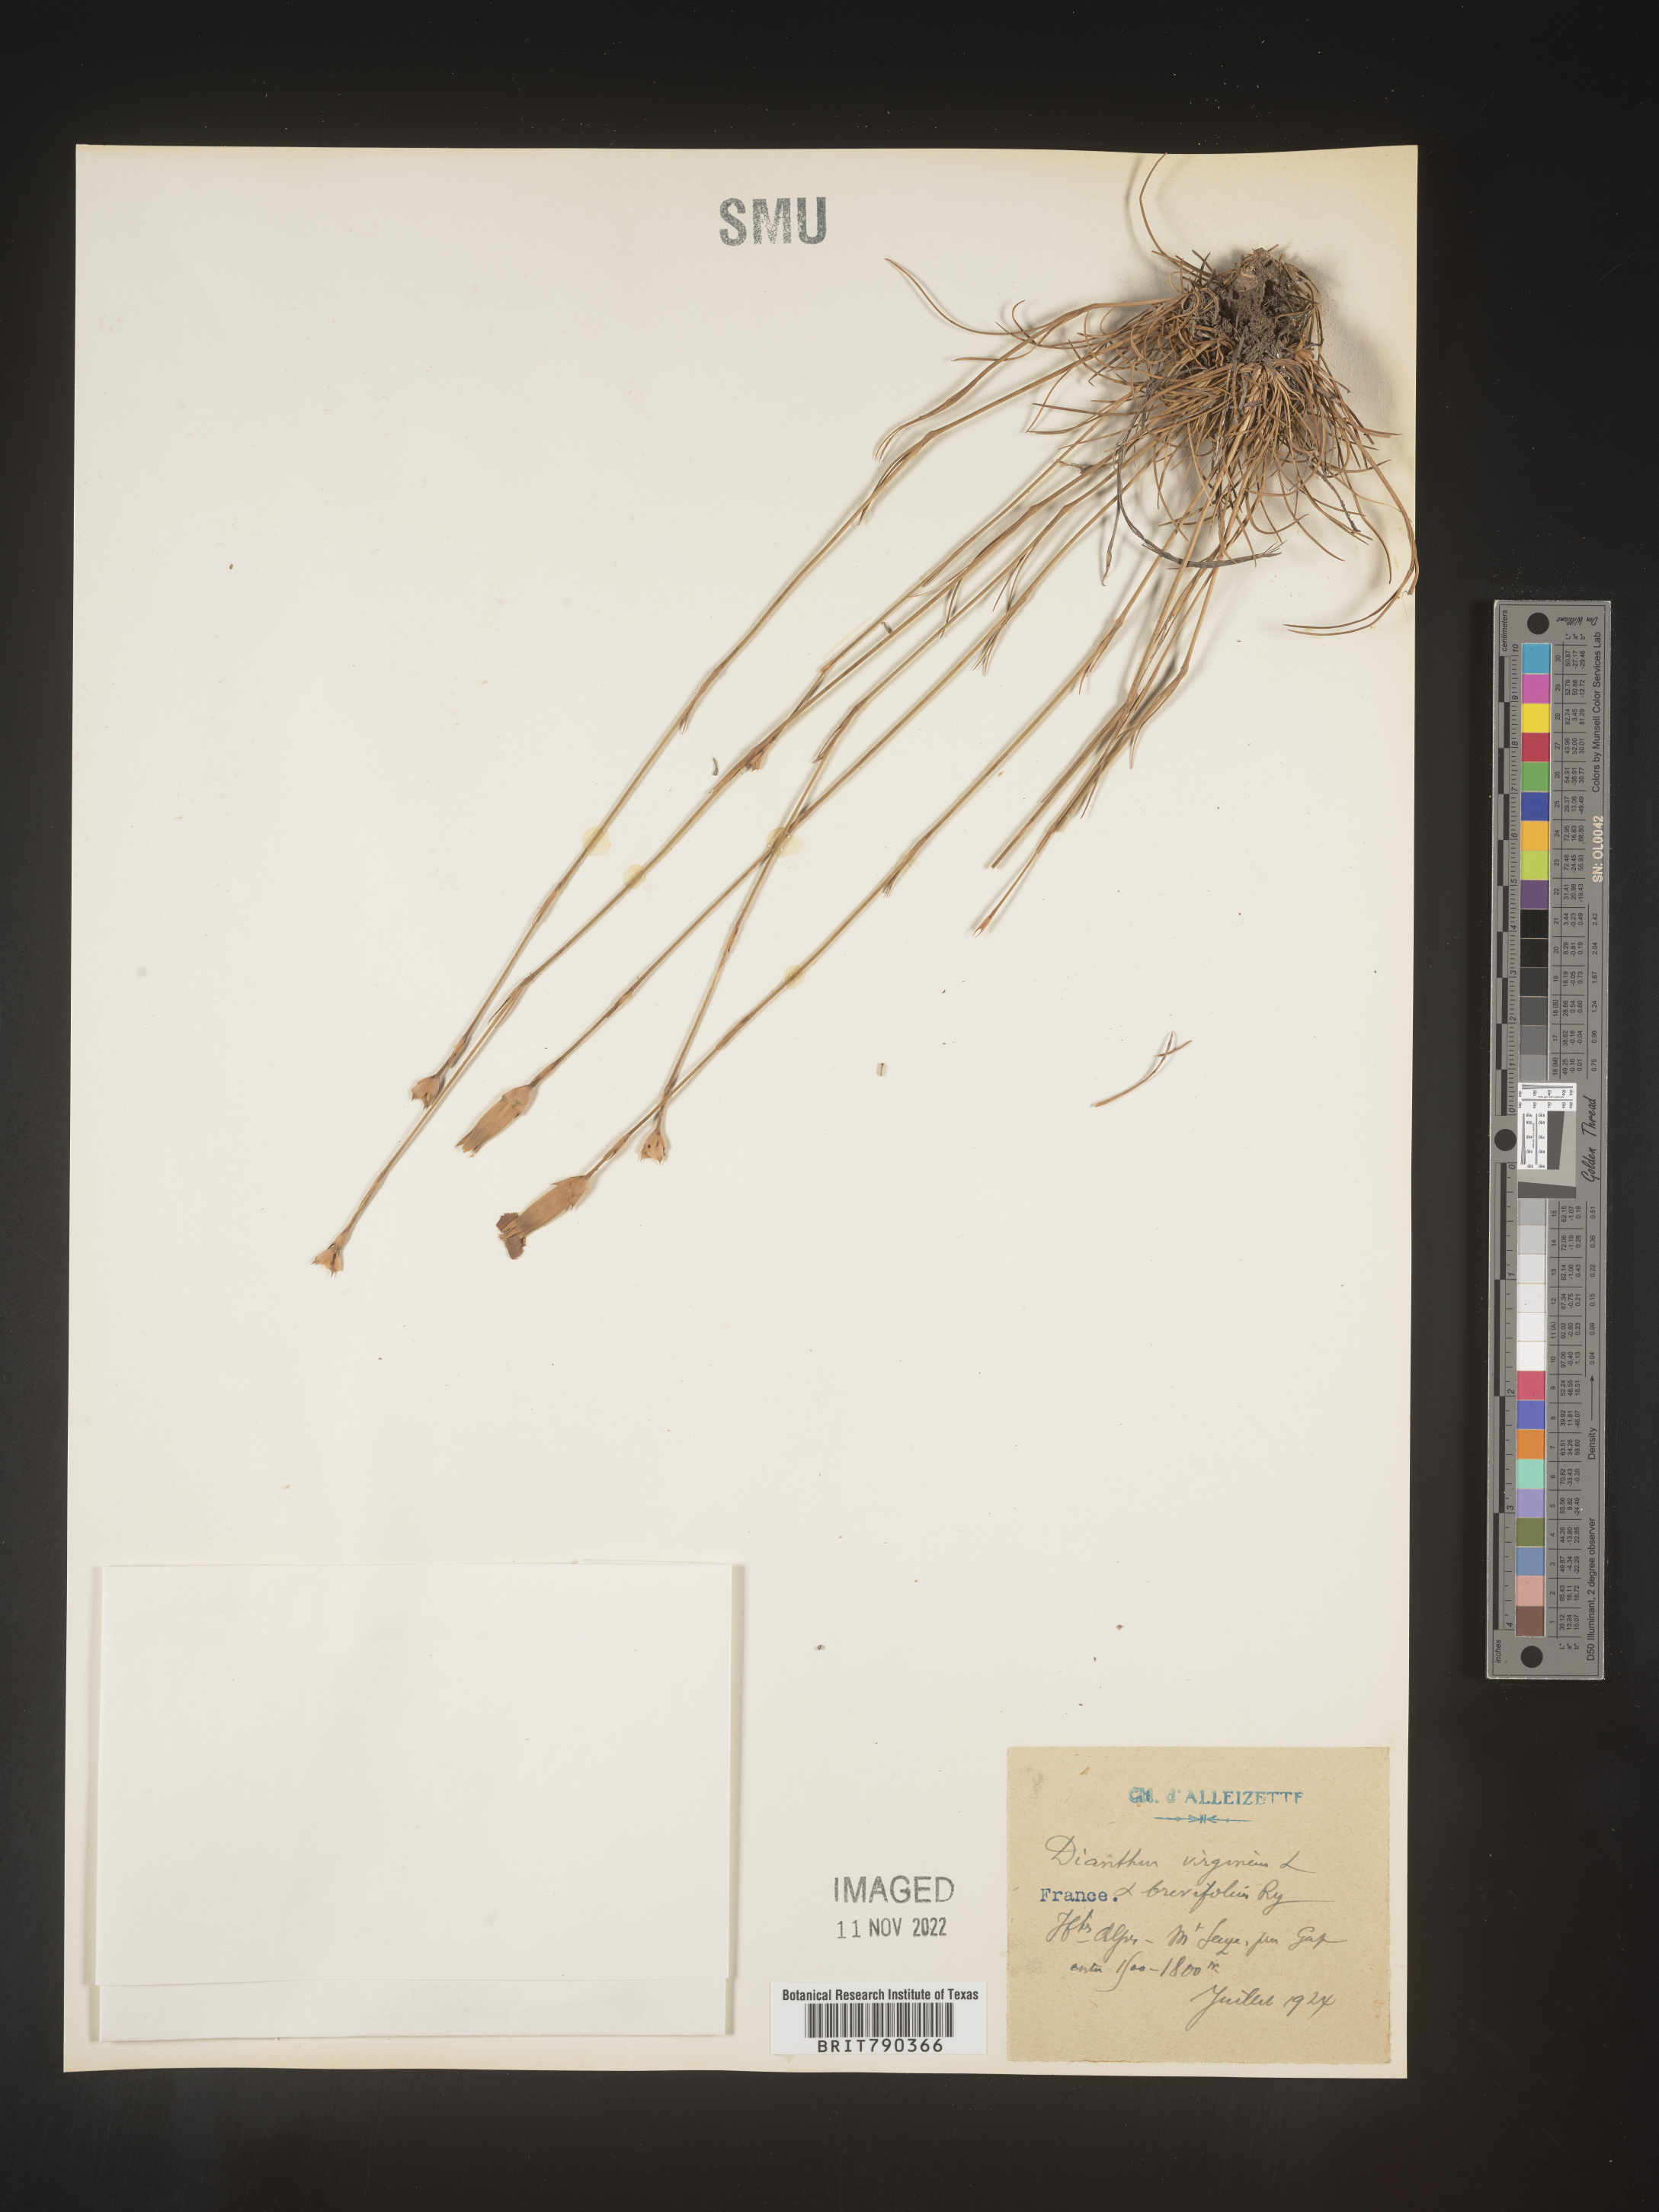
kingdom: Plantae
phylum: Tracheophyta
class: Magnoliopsida
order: Caryophyllales
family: Caryophyllaceae
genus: Dianthus
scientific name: Dianthus
